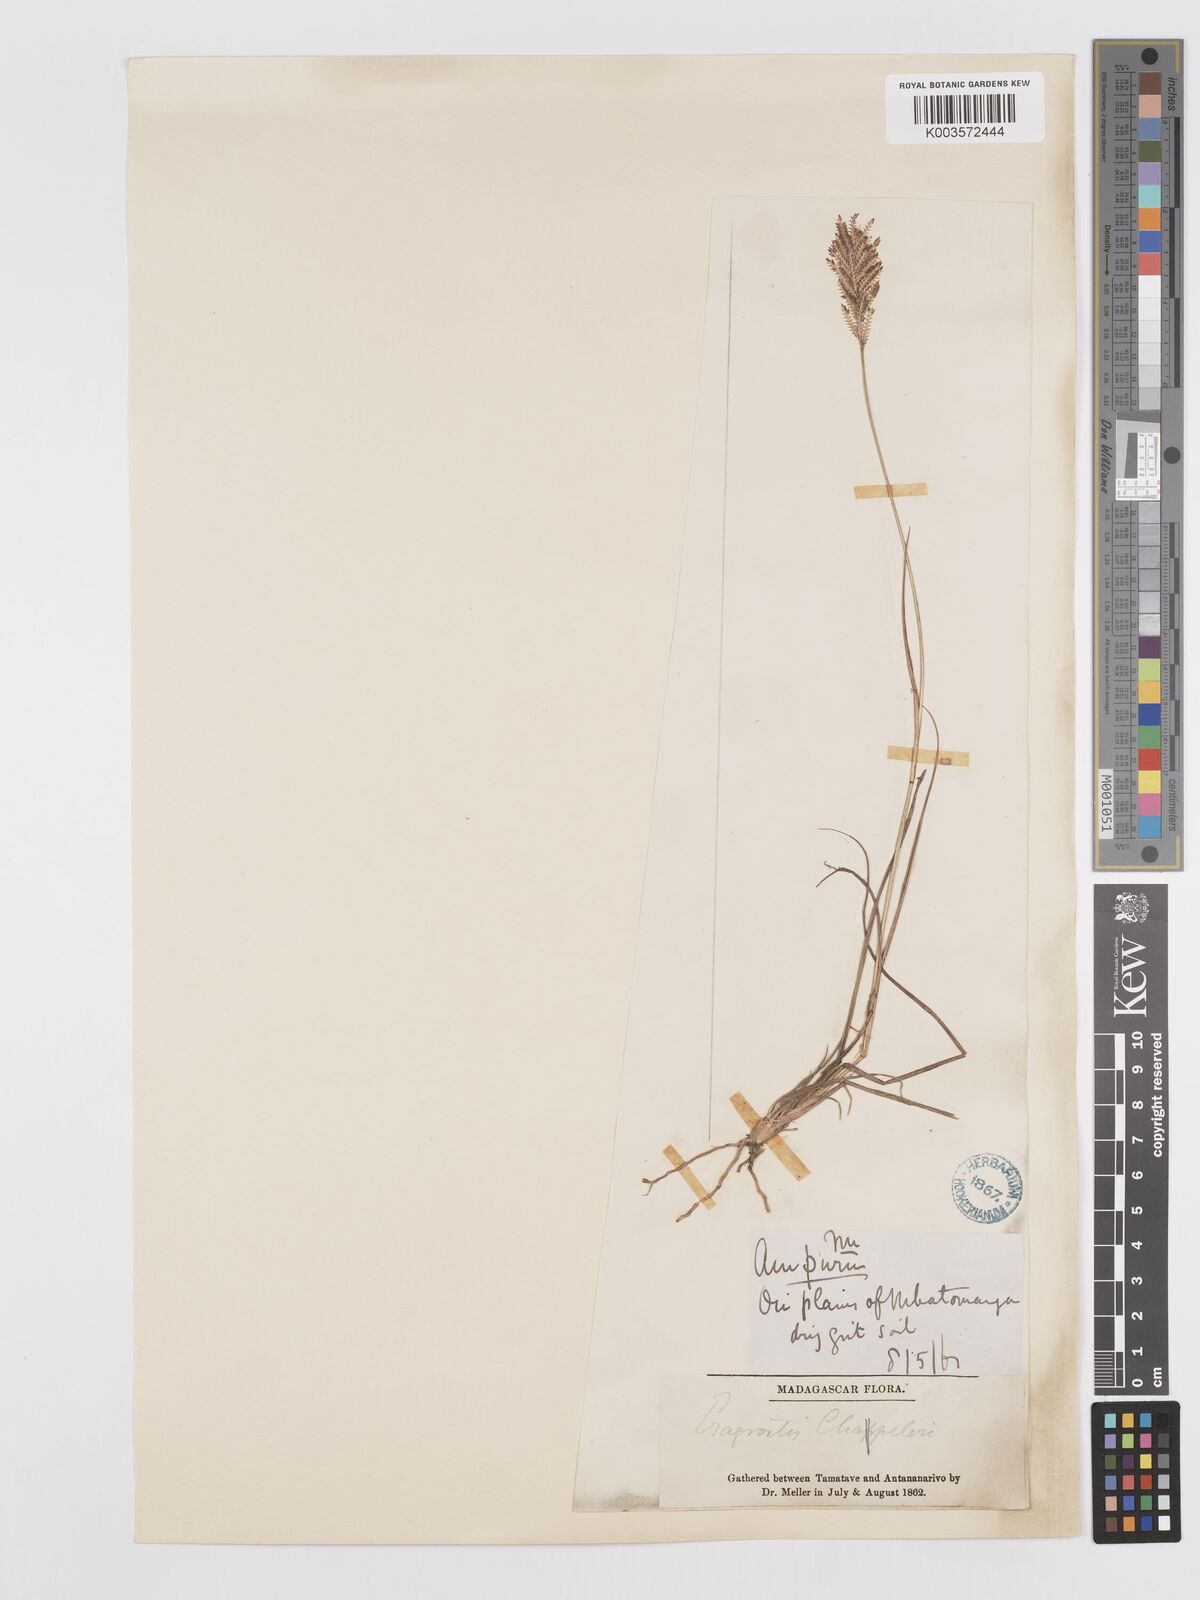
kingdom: Plantae
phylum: Tracheophyta
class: Liliopsida
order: Poales
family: Poaceae
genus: Eragrostis
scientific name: Eragrostis chapelieri
